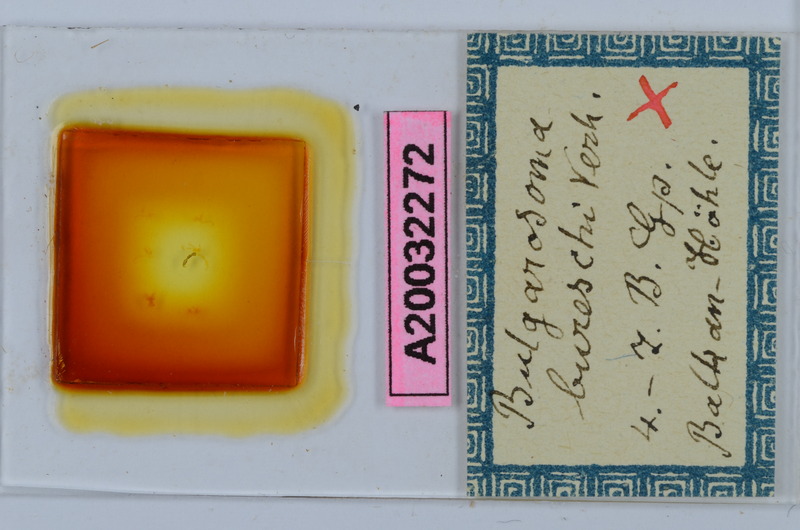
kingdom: Animalia
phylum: Arthropoda
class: Diplopoda
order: Chordeumatida
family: Anthroleucosomatidae
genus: Bulgarosoma
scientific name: Bulgarosoma bureschi
